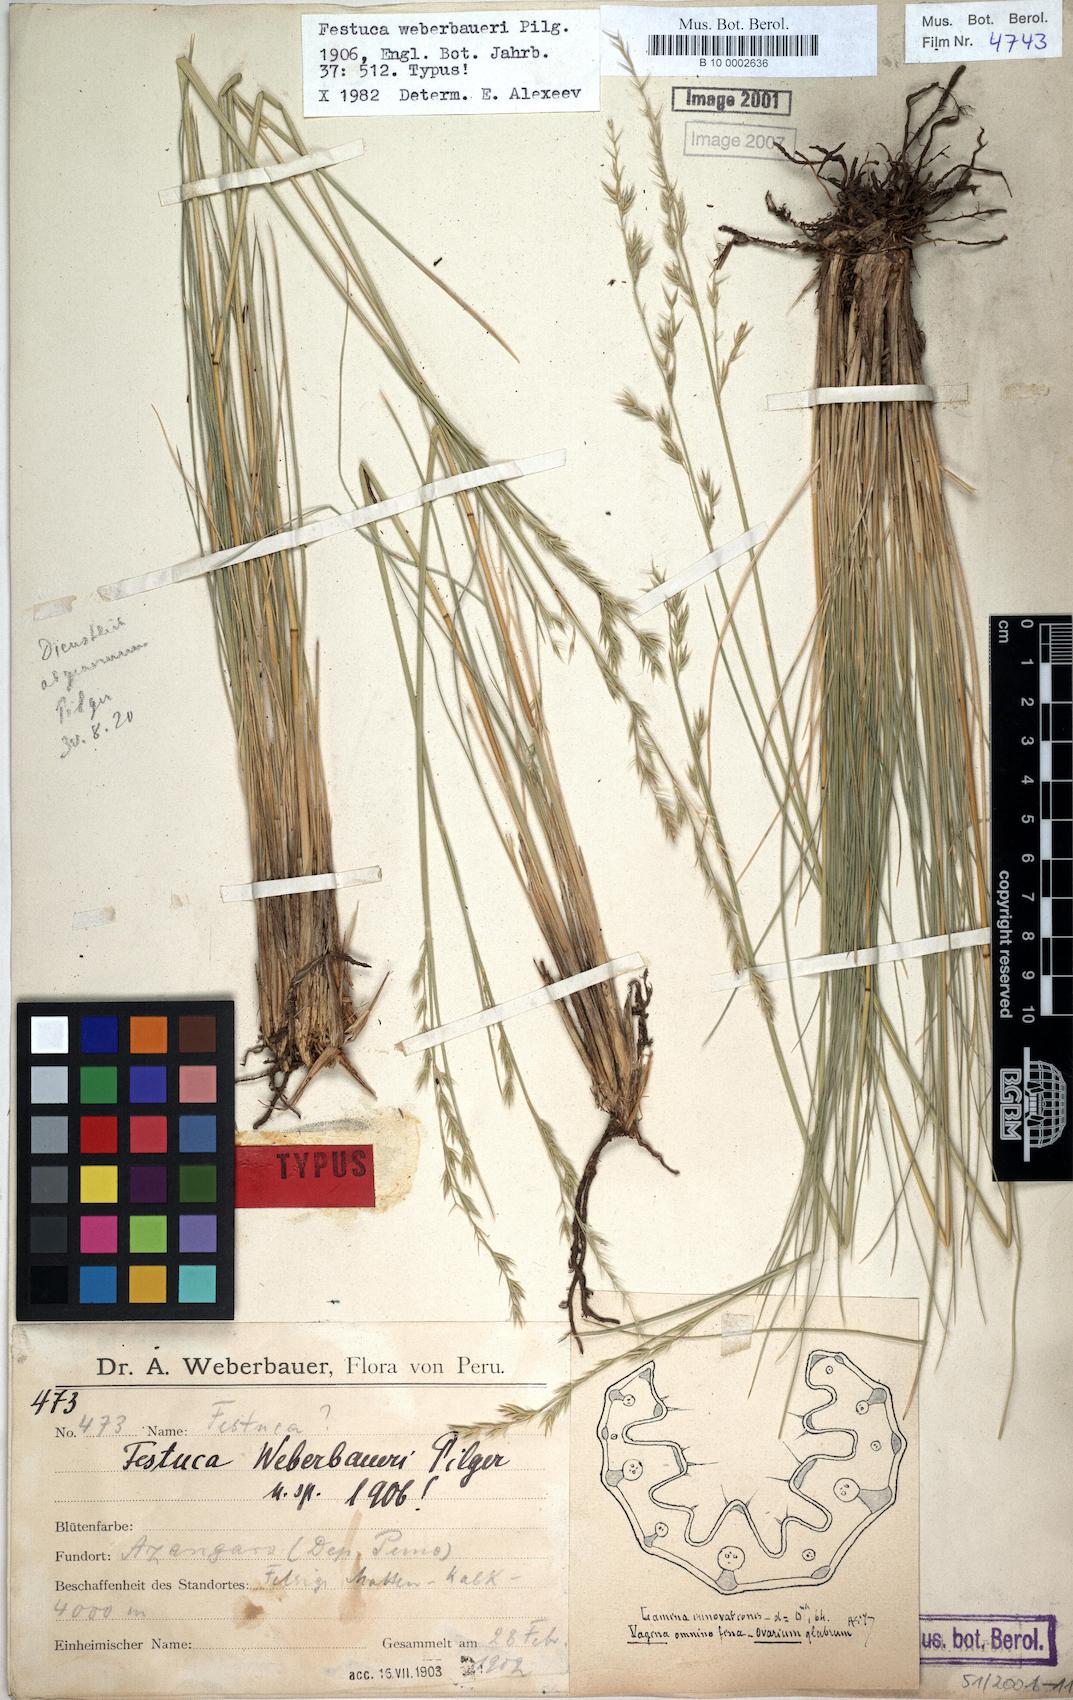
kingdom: Plantae
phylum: Tracheophyta
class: Liliopsida
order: Poales
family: Poaceae
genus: Festuca
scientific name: Festuca fiebrigii
